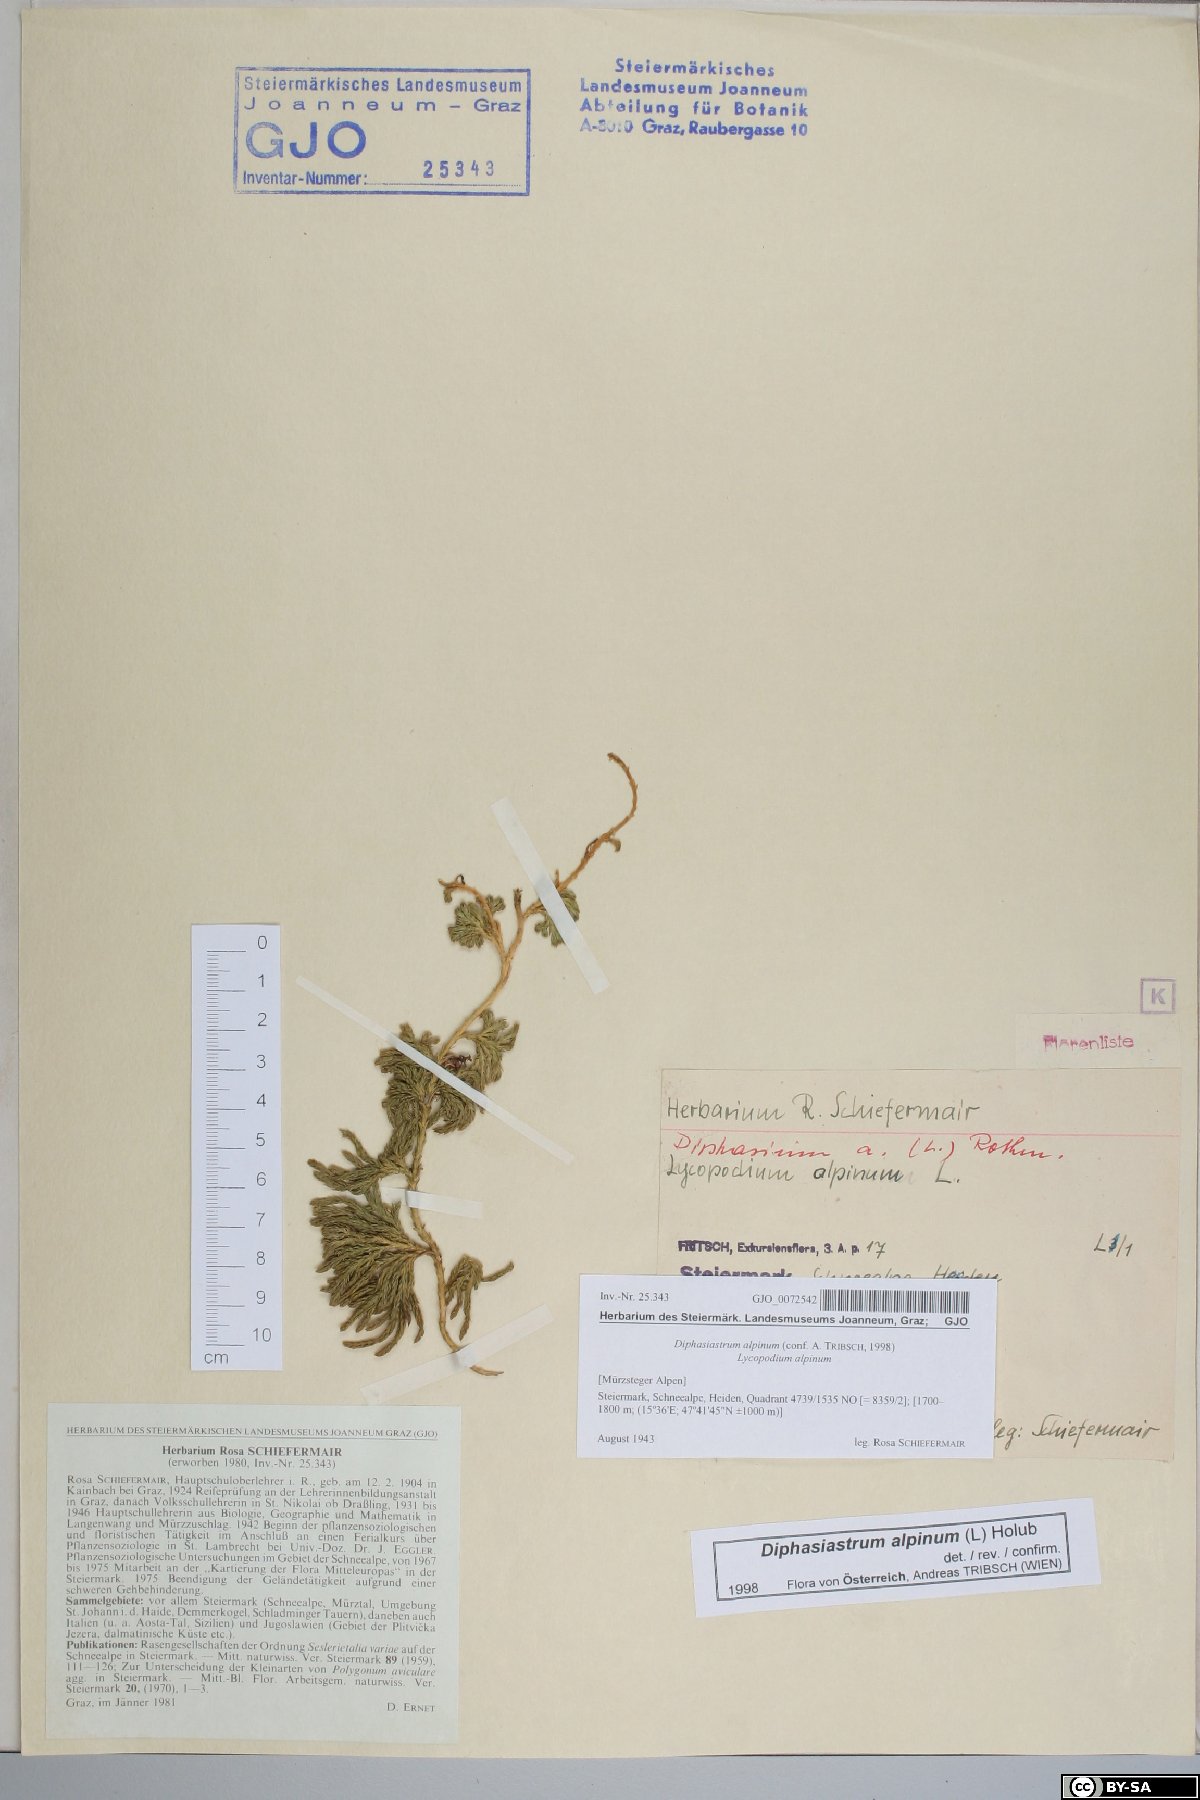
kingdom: Plantae
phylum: Tracheophyta
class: Lycopodiopsida
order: Lycopodiales
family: Lycopodiaceae
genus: Diphasiastrum
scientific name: Diphasiastrum alpinum
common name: Alpine clubmoss
